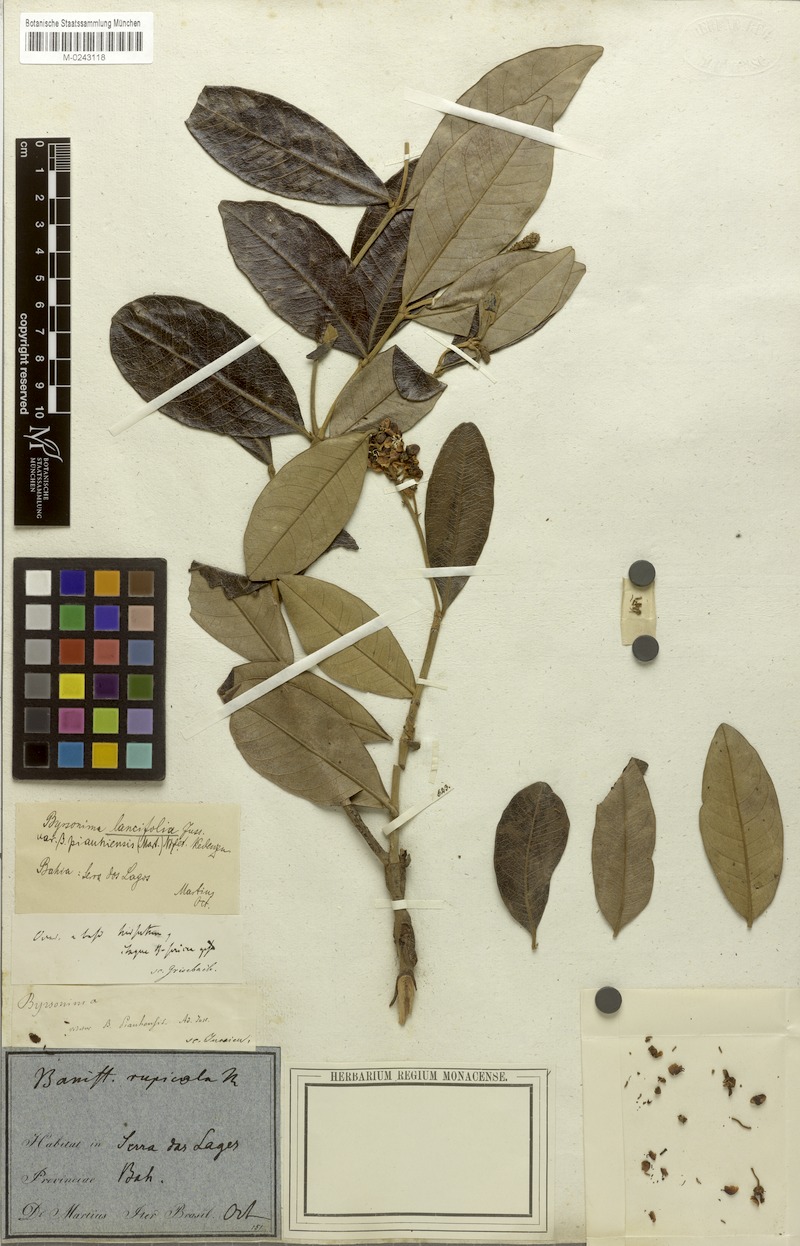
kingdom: Plantae
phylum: Tracheophyta
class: Magnoliopsida
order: Malpighiales
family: Malpighiaceae
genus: Byrsonima
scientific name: Byrsonima lancifolia
